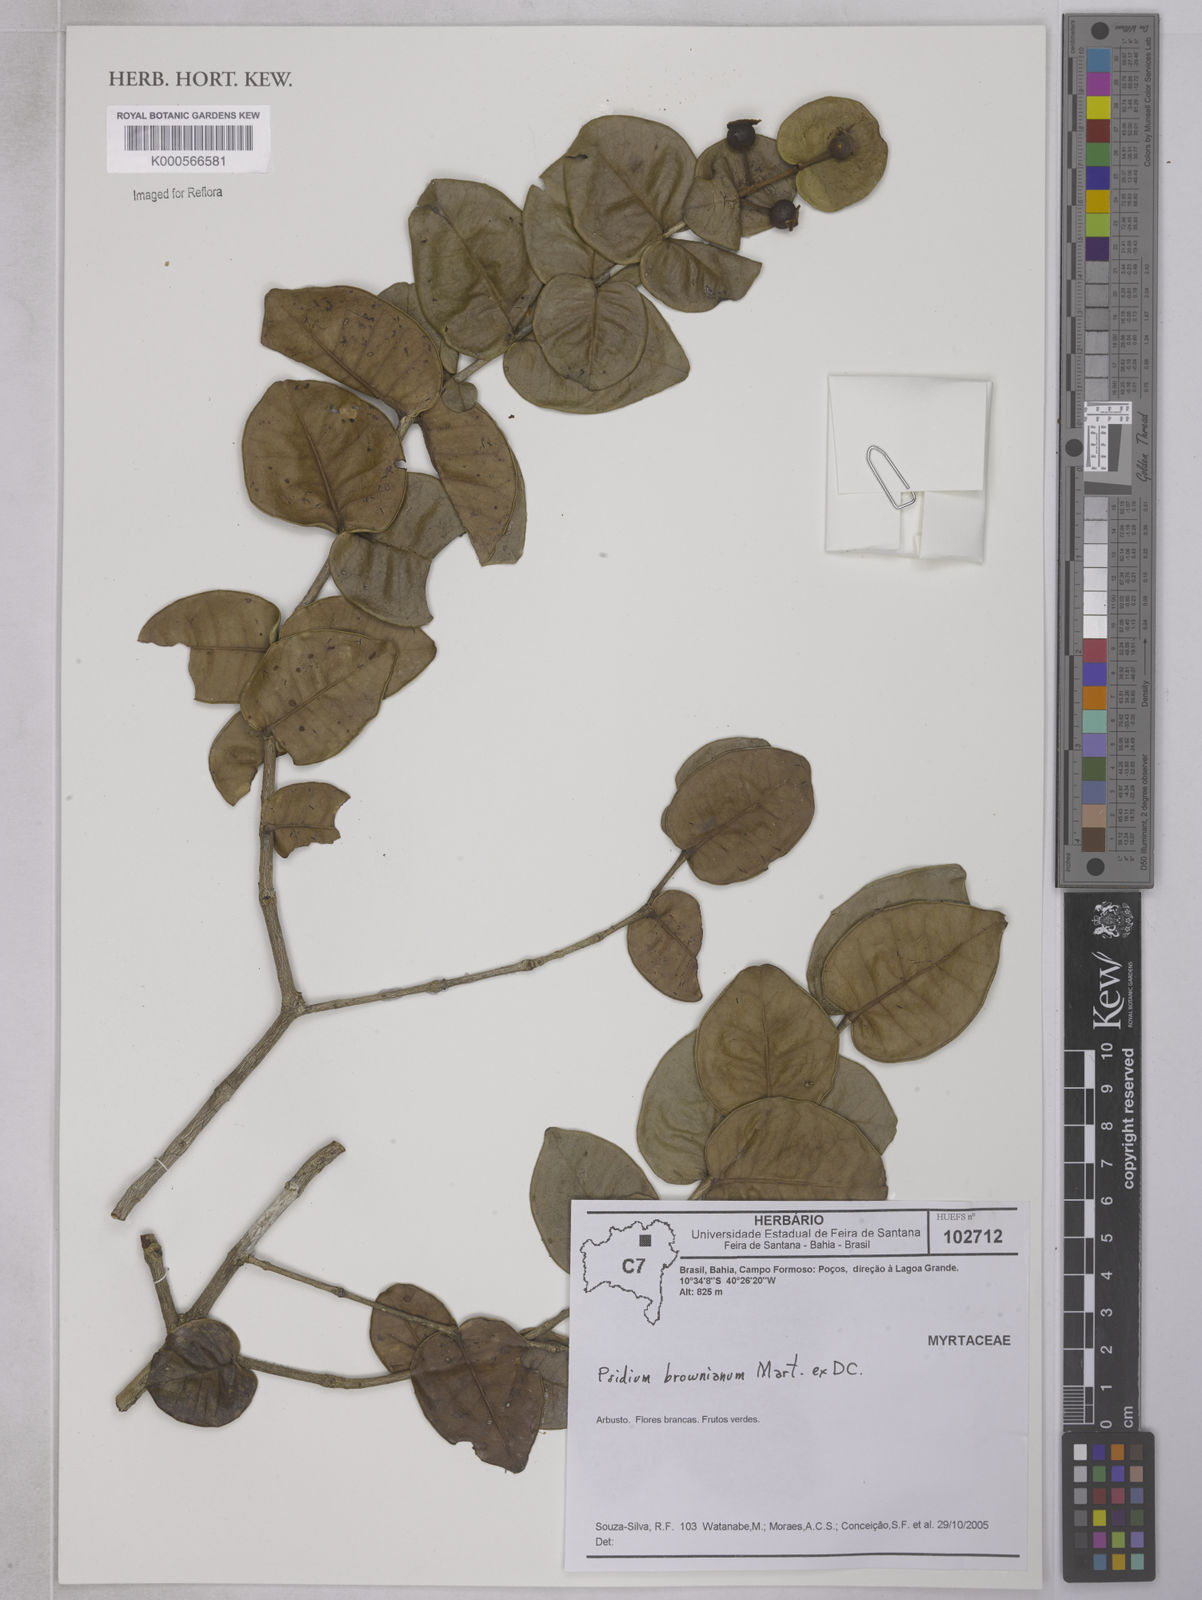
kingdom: Plantae
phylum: Tracheophyta
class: Magnoliopsida
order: Myrtales
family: Myrtaceae
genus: Psidium
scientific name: Psidium
